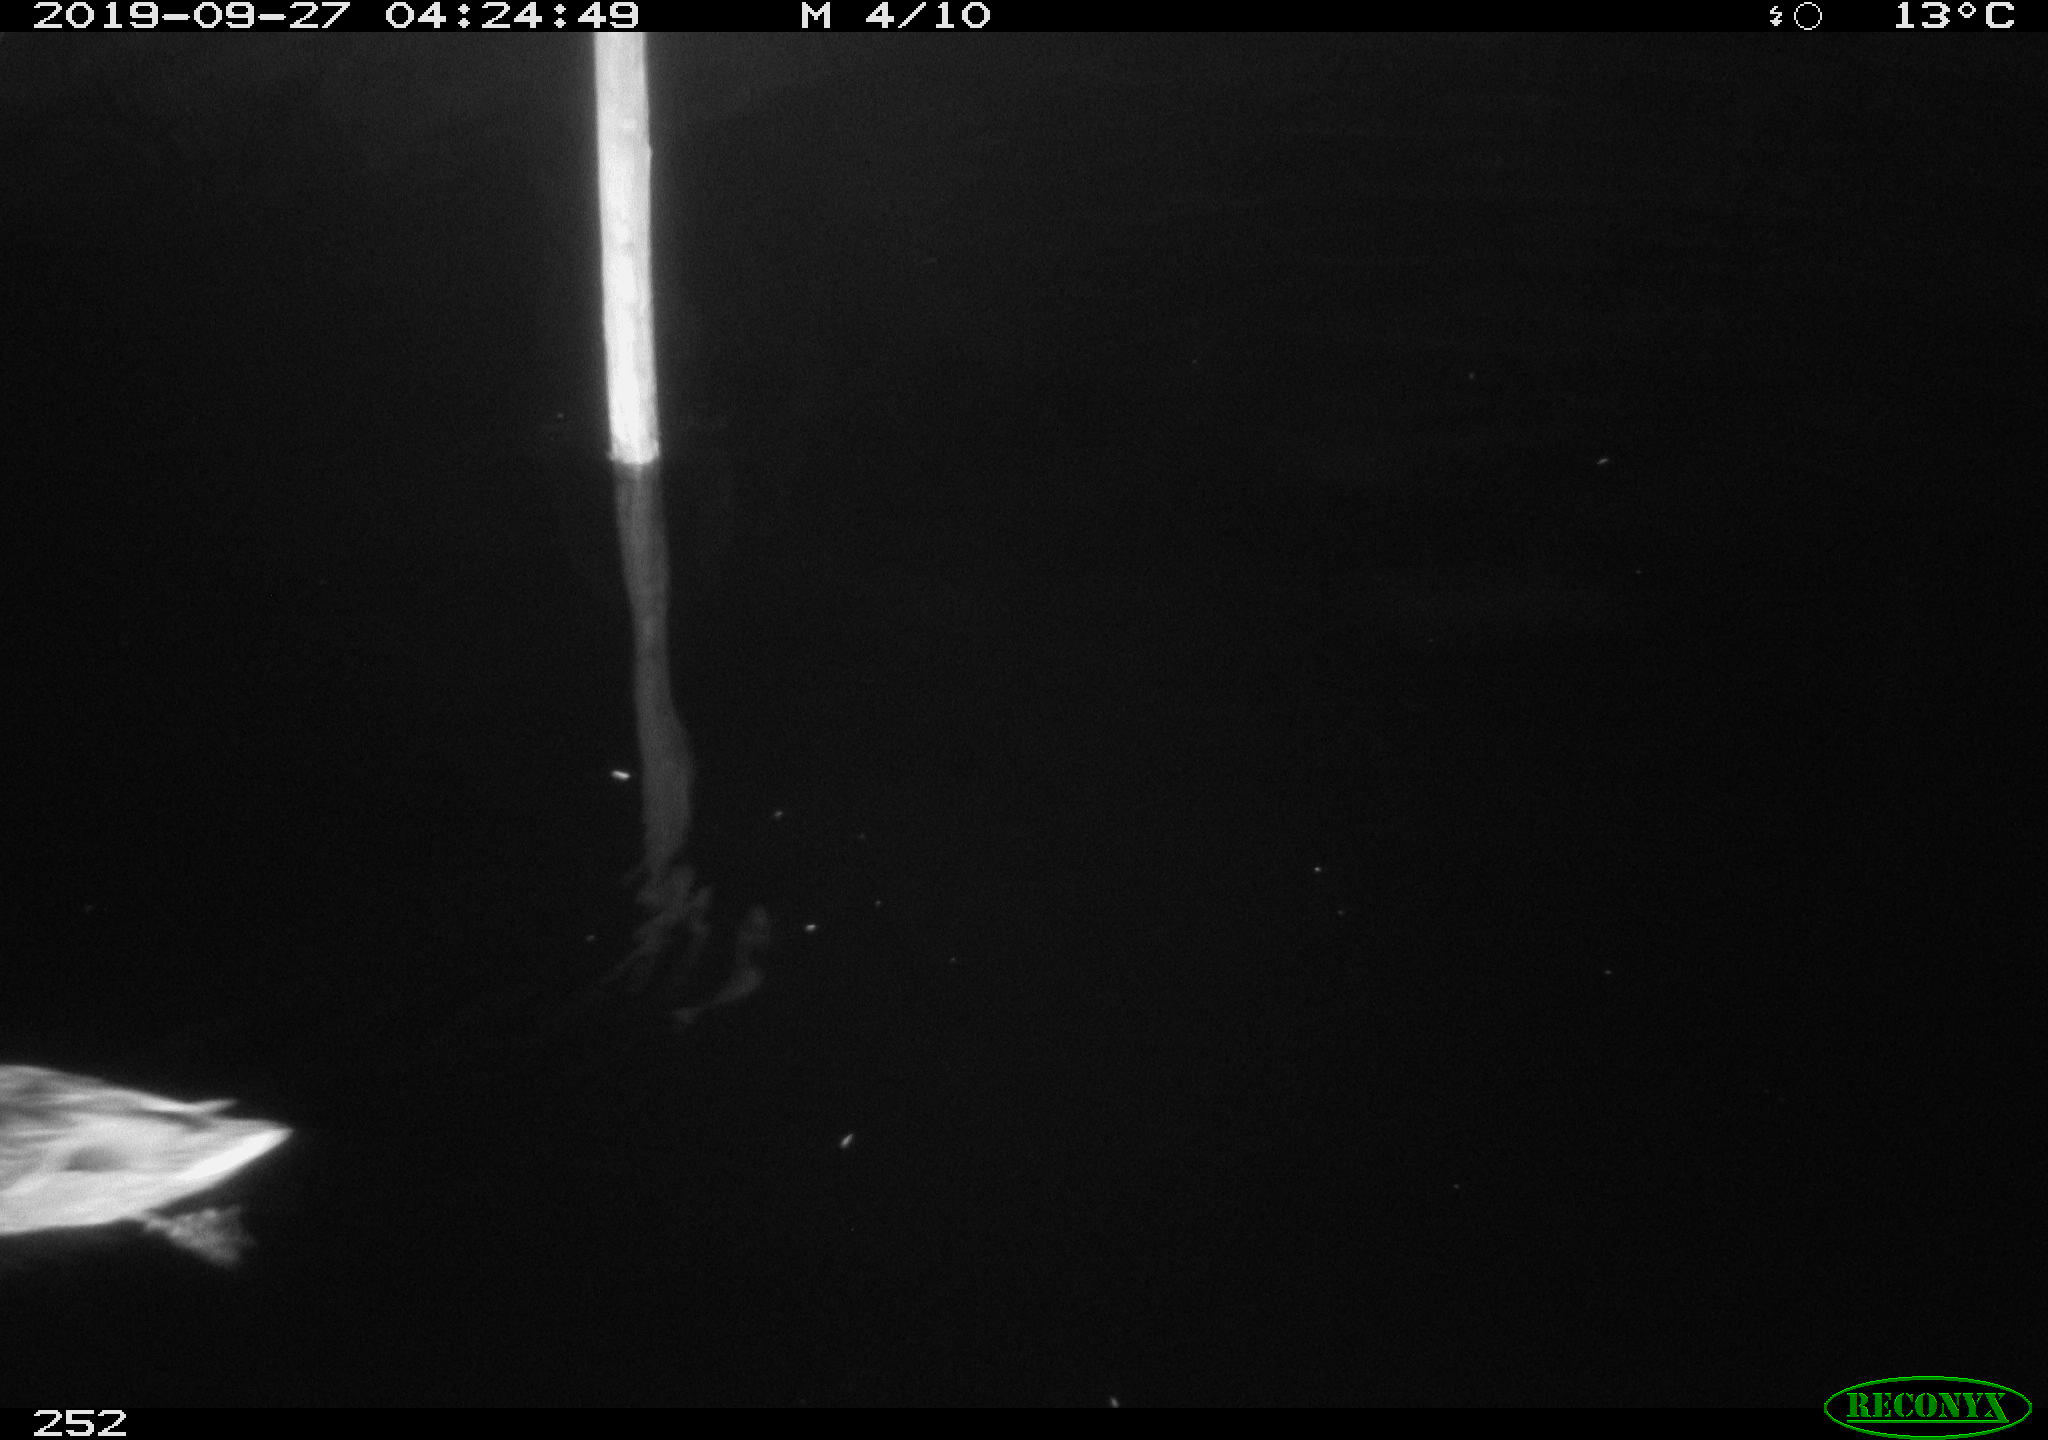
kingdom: Animalia
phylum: Chordata
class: Aves
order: Anseriformes
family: Anatidae
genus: Anas
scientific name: Anas platyrhynchos
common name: Mallard
